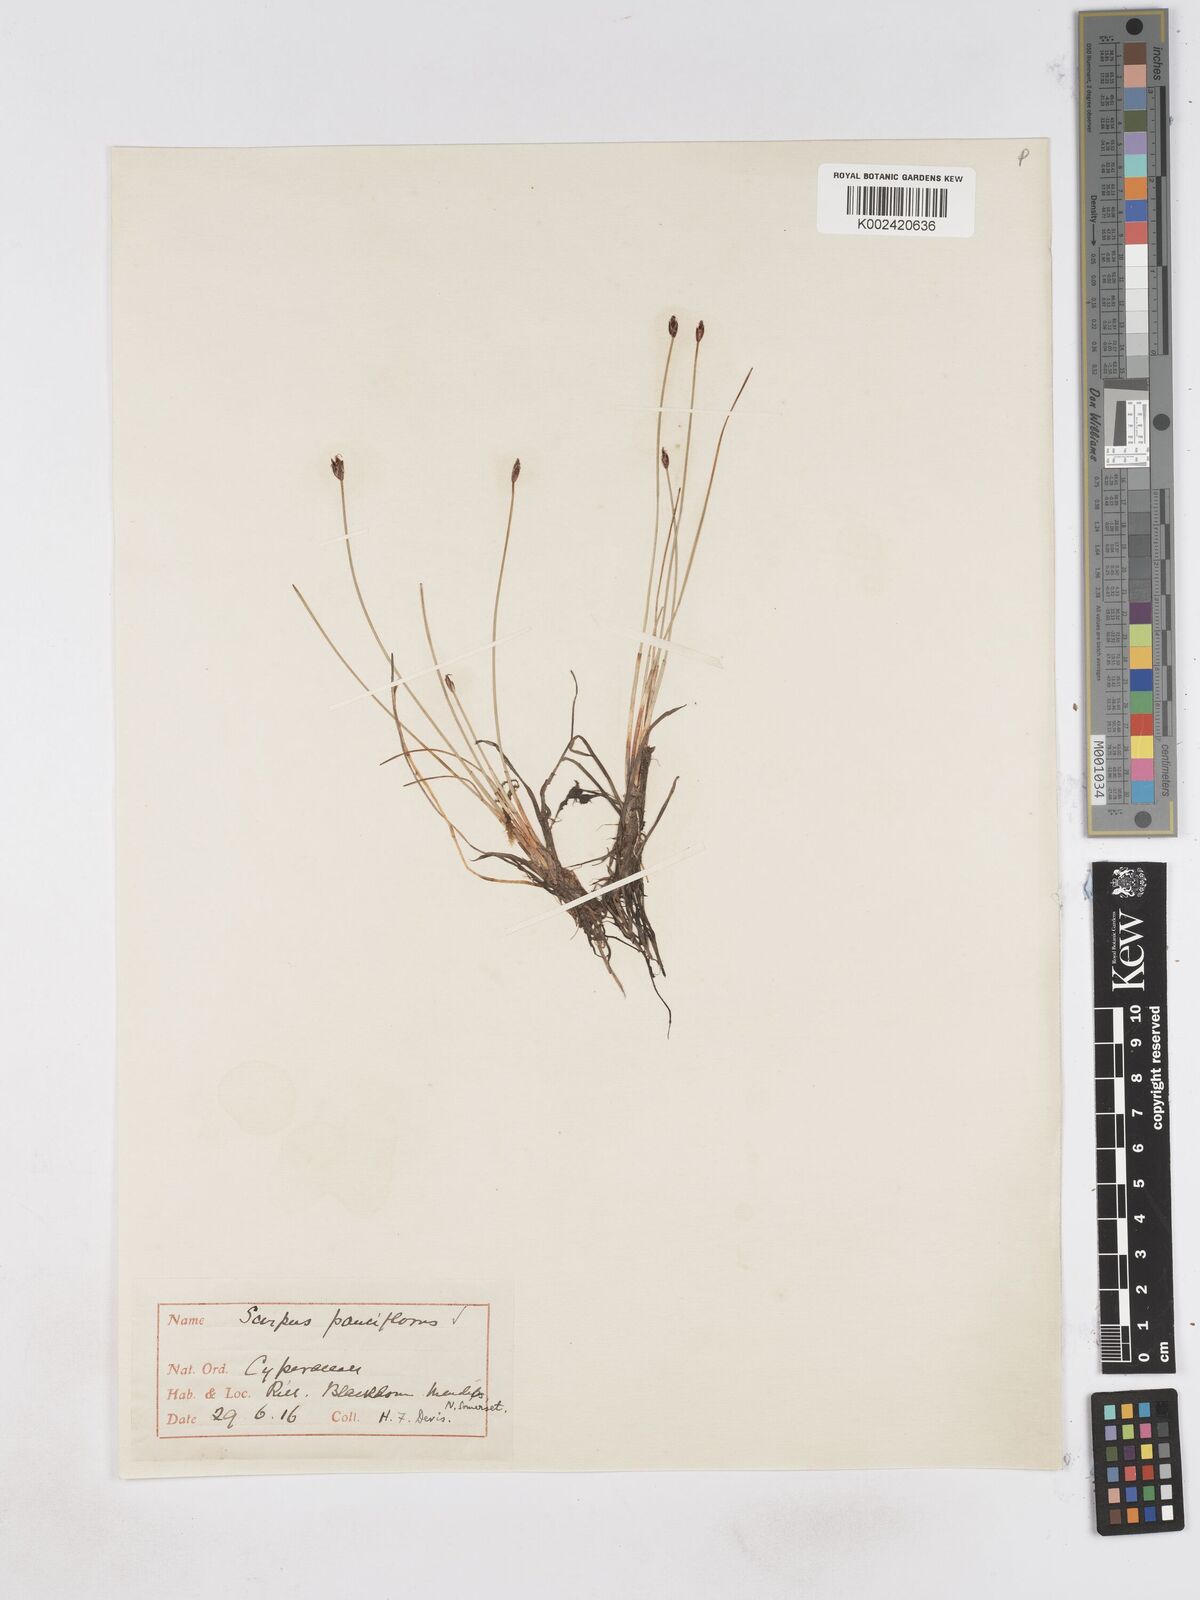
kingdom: Plantae
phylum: Tracheophyta
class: Liliopsida
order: Poales
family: Cyperaceae
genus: Eleocharis
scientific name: Eleocharis quinqueflora
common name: Few-flowered spike-rush
